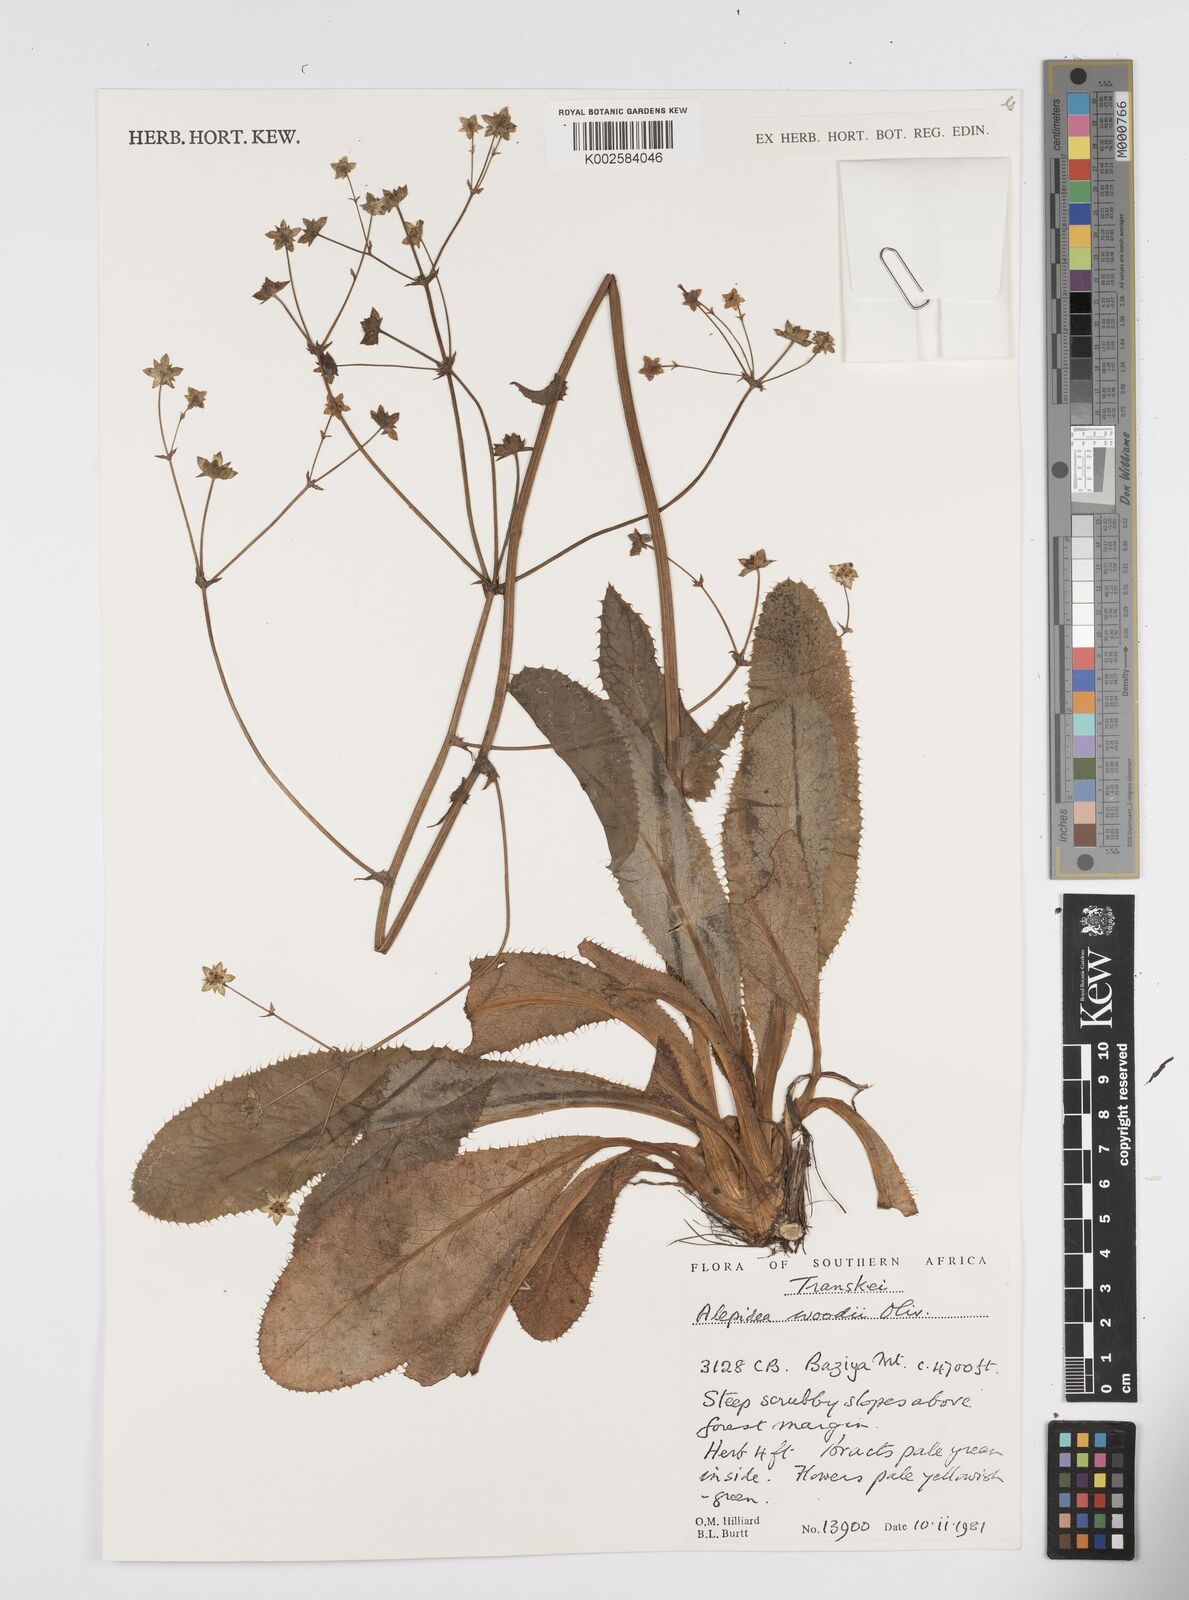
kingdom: Plantae
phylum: Tracheophyta
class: Magnoliopsida
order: Apiales
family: Apiaceae
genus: Alepidea
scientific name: Alepidea woodii
